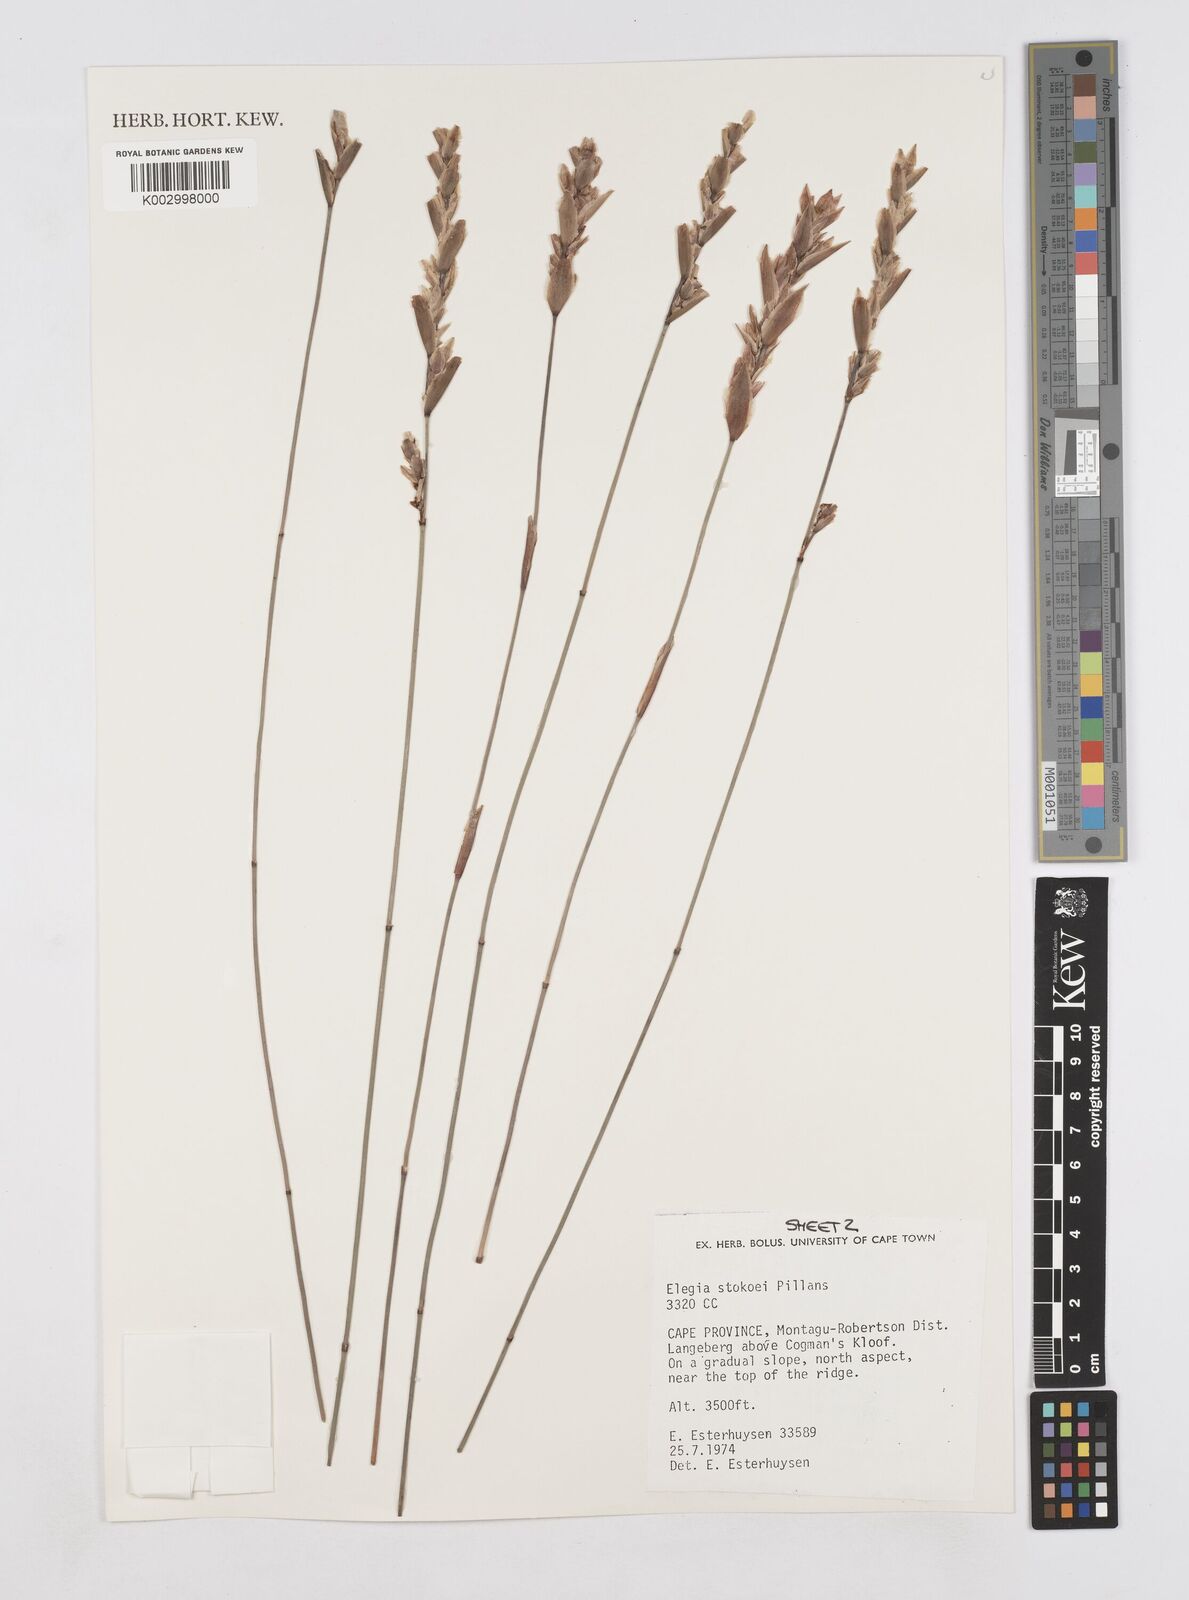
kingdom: Plantae
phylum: Tracheophyta
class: Liliopsida
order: Poales
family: Restionaceae
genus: Elegia
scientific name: Elegia stokoei
